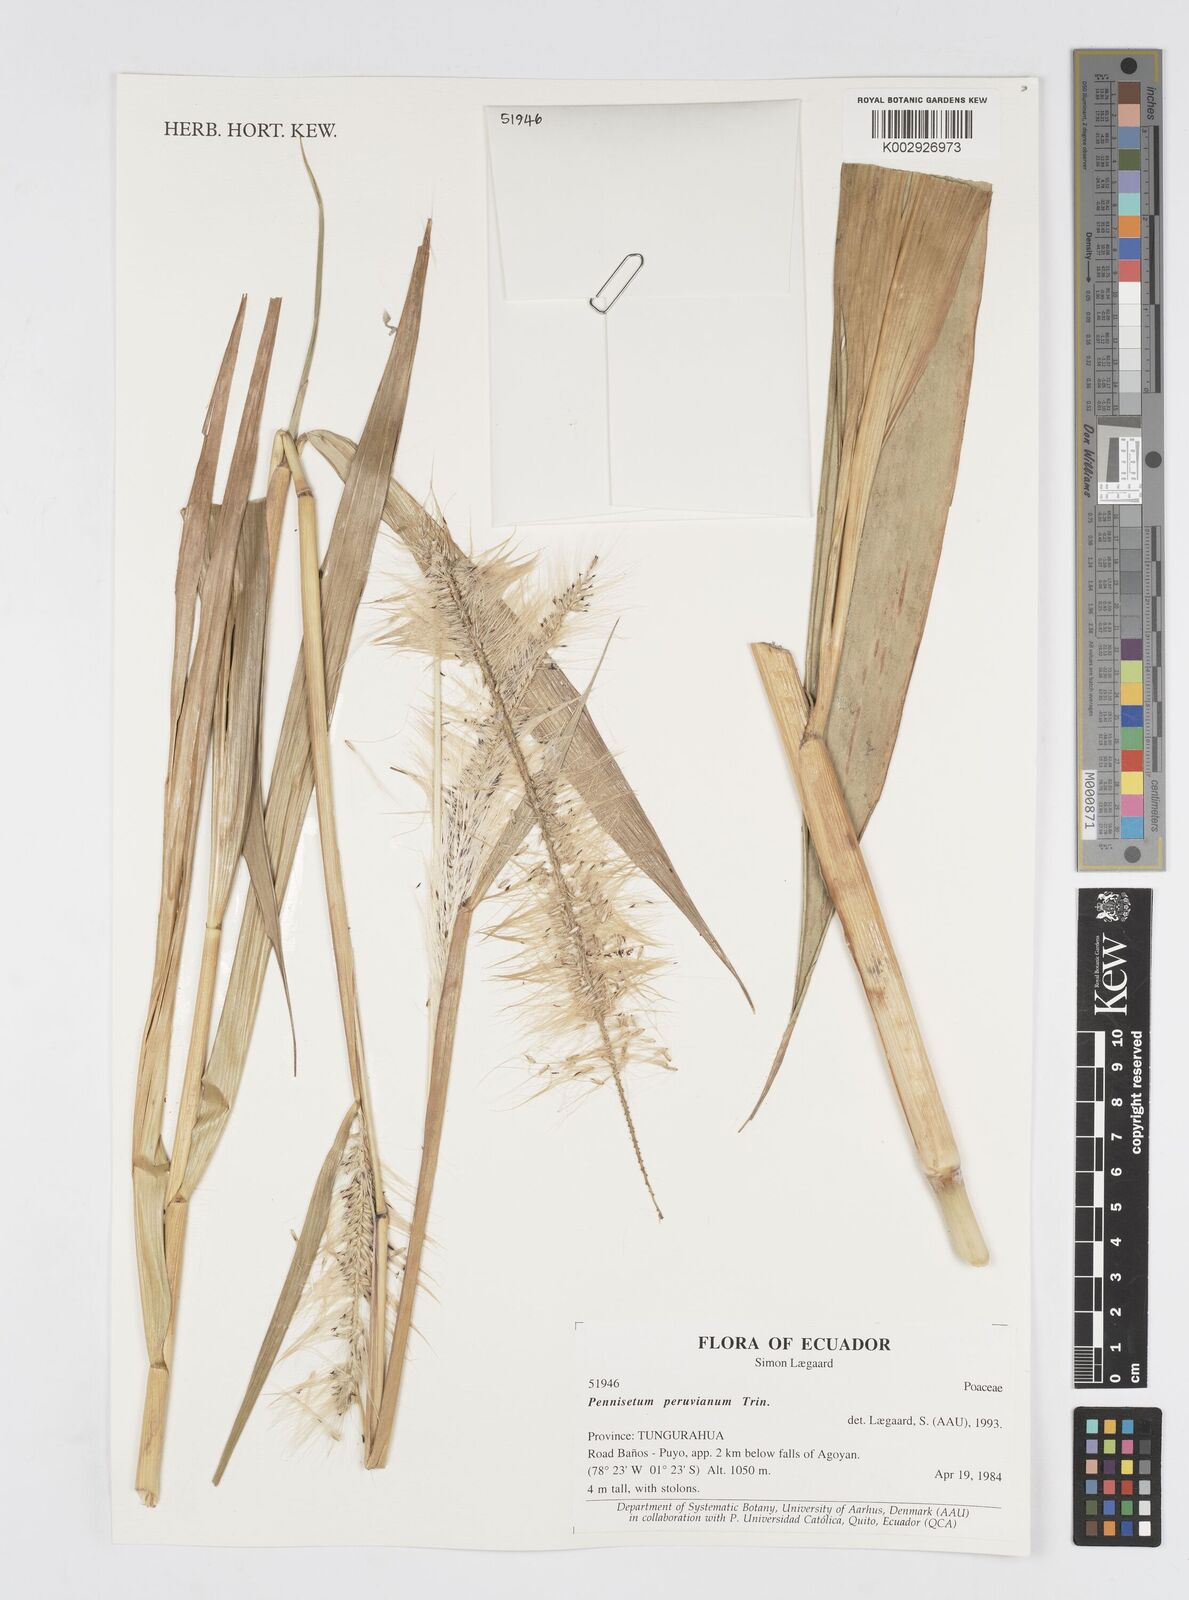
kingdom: Plantae
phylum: Tracheophyta
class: Liliopsida
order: Poales
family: Poaceae
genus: Cenchrus
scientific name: Cenchrus peruvianus
